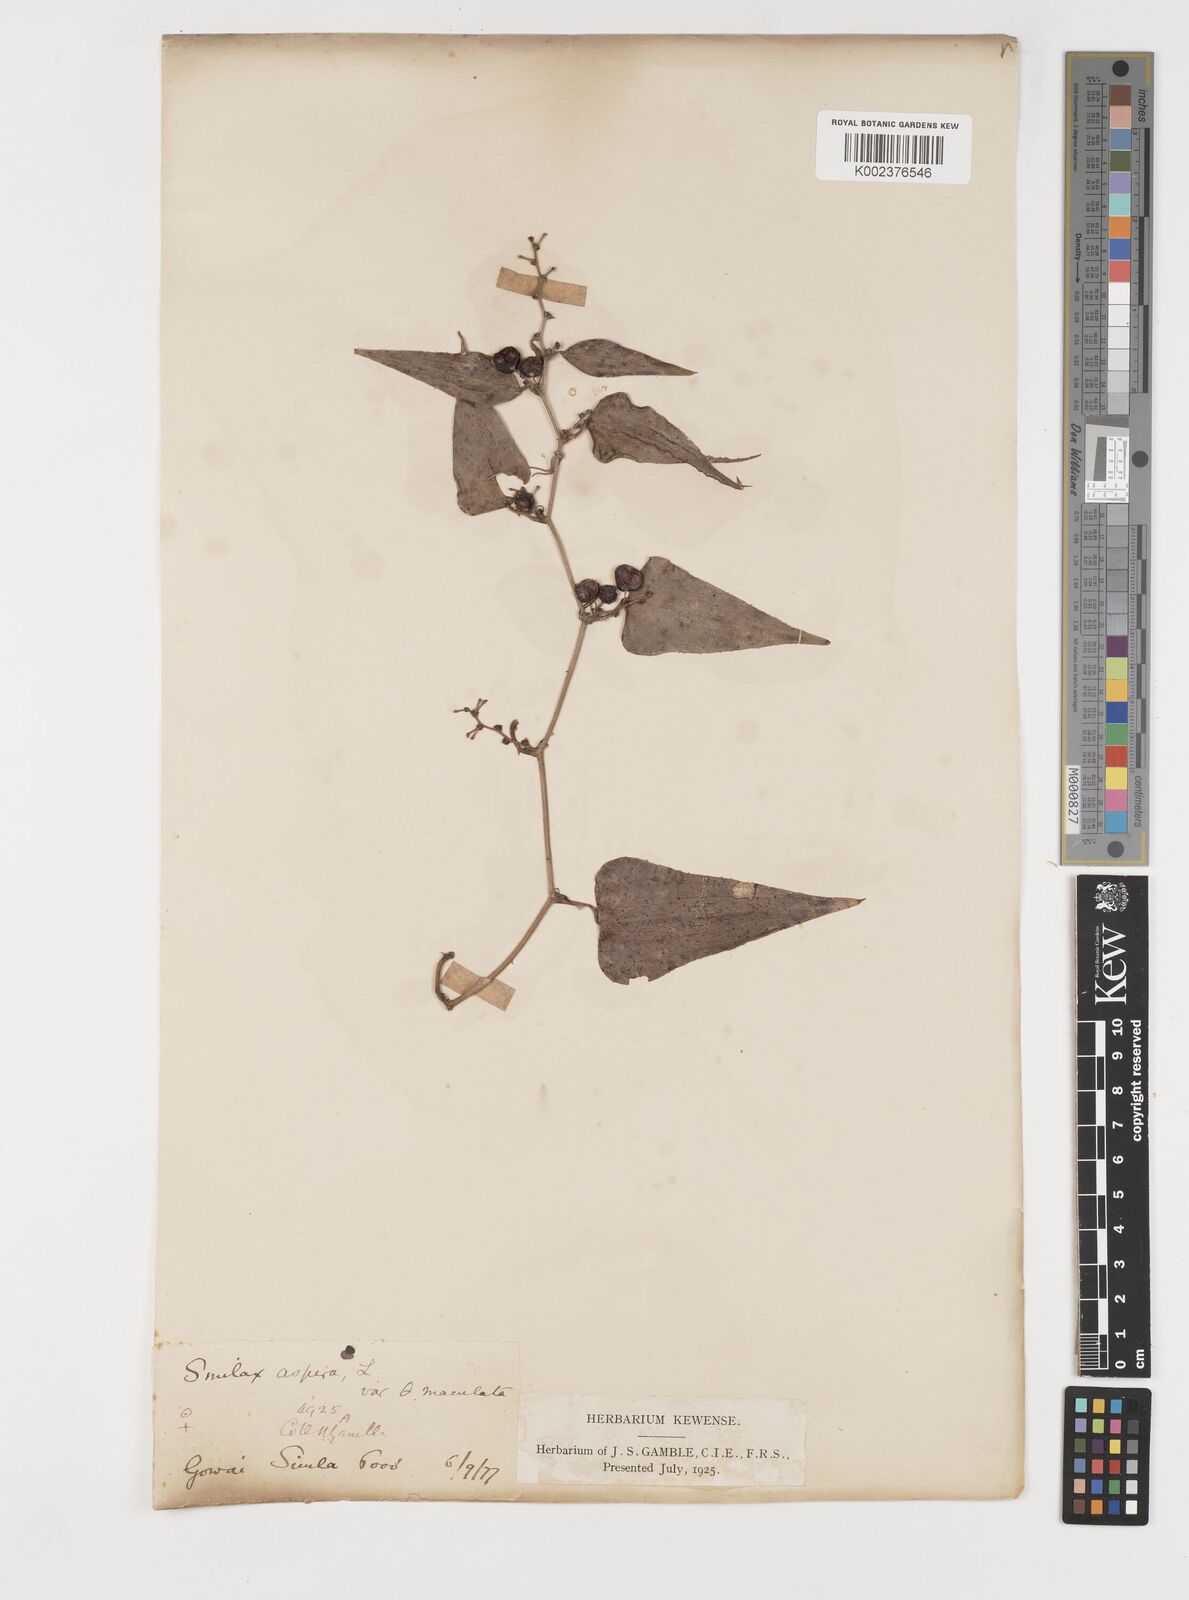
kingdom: Plantae
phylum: Tracheophyta
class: Liliopsida
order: Liliales
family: Smilacaceae
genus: Smilax
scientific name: Smilax aspera
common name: Common smilax
